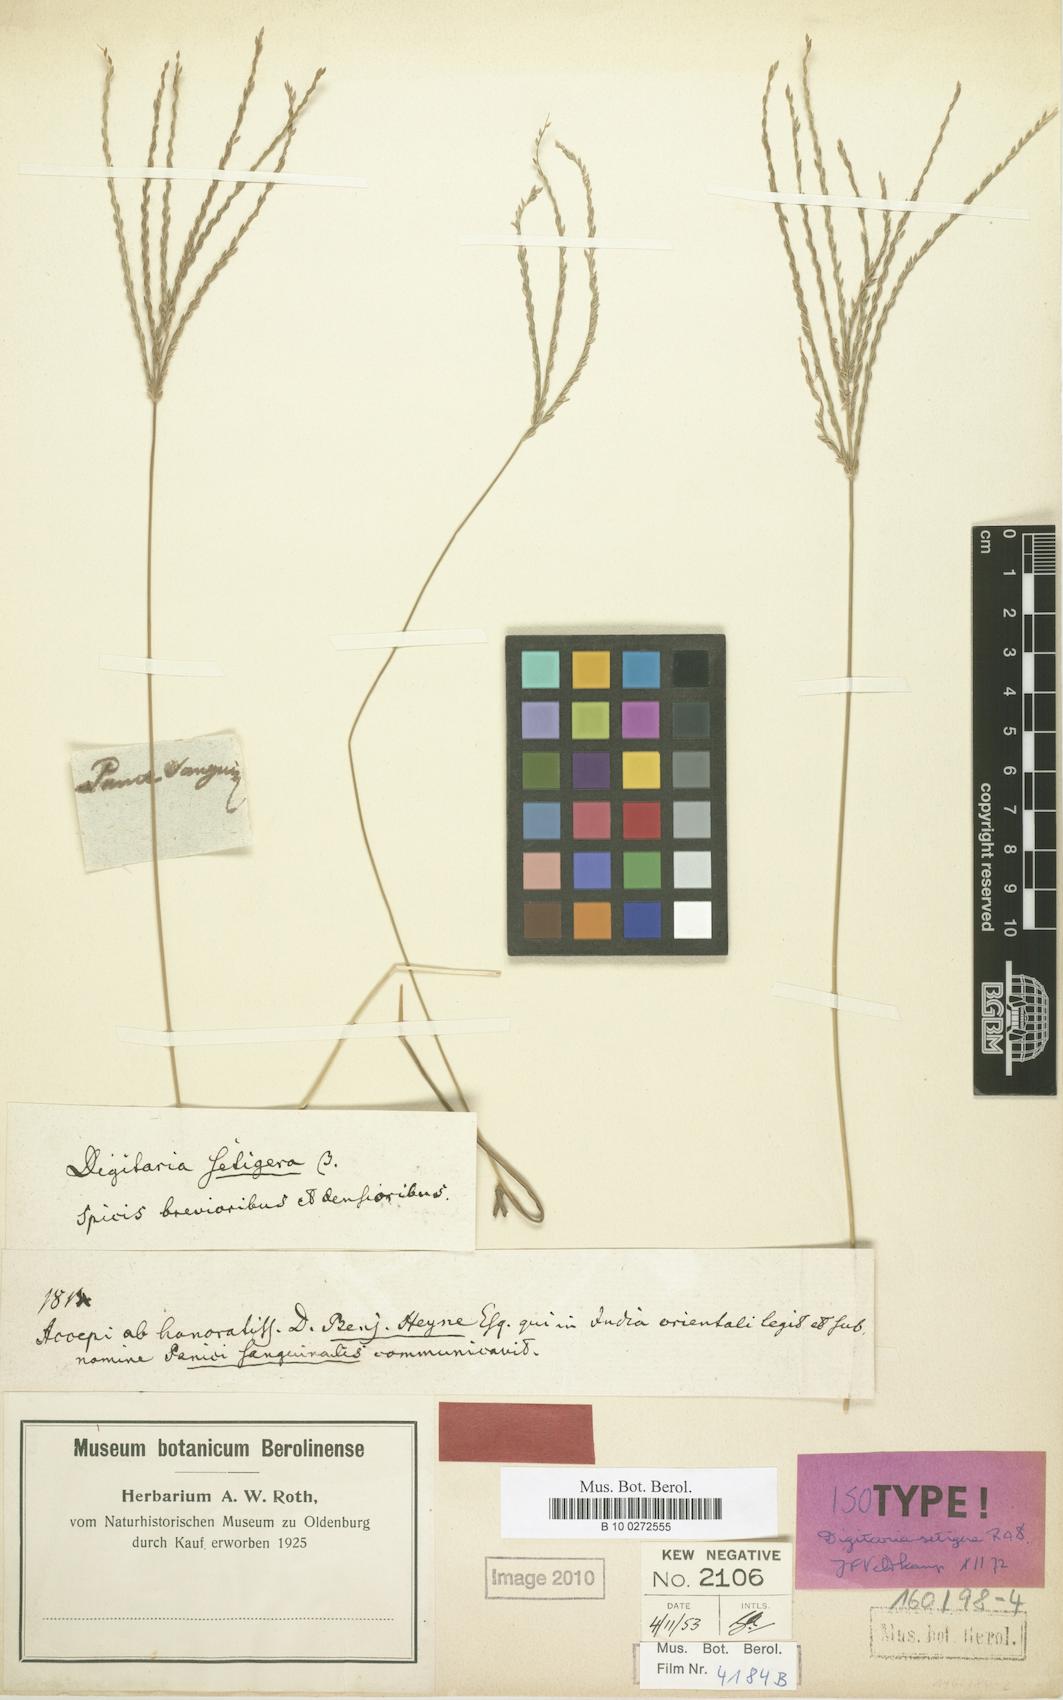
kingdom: Plantae
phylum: Tracheophyta
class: Liliopsida
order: Poales
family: Poaceae
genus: Digitaria
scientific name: Digitaria setigera
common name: East indian crabgrass
